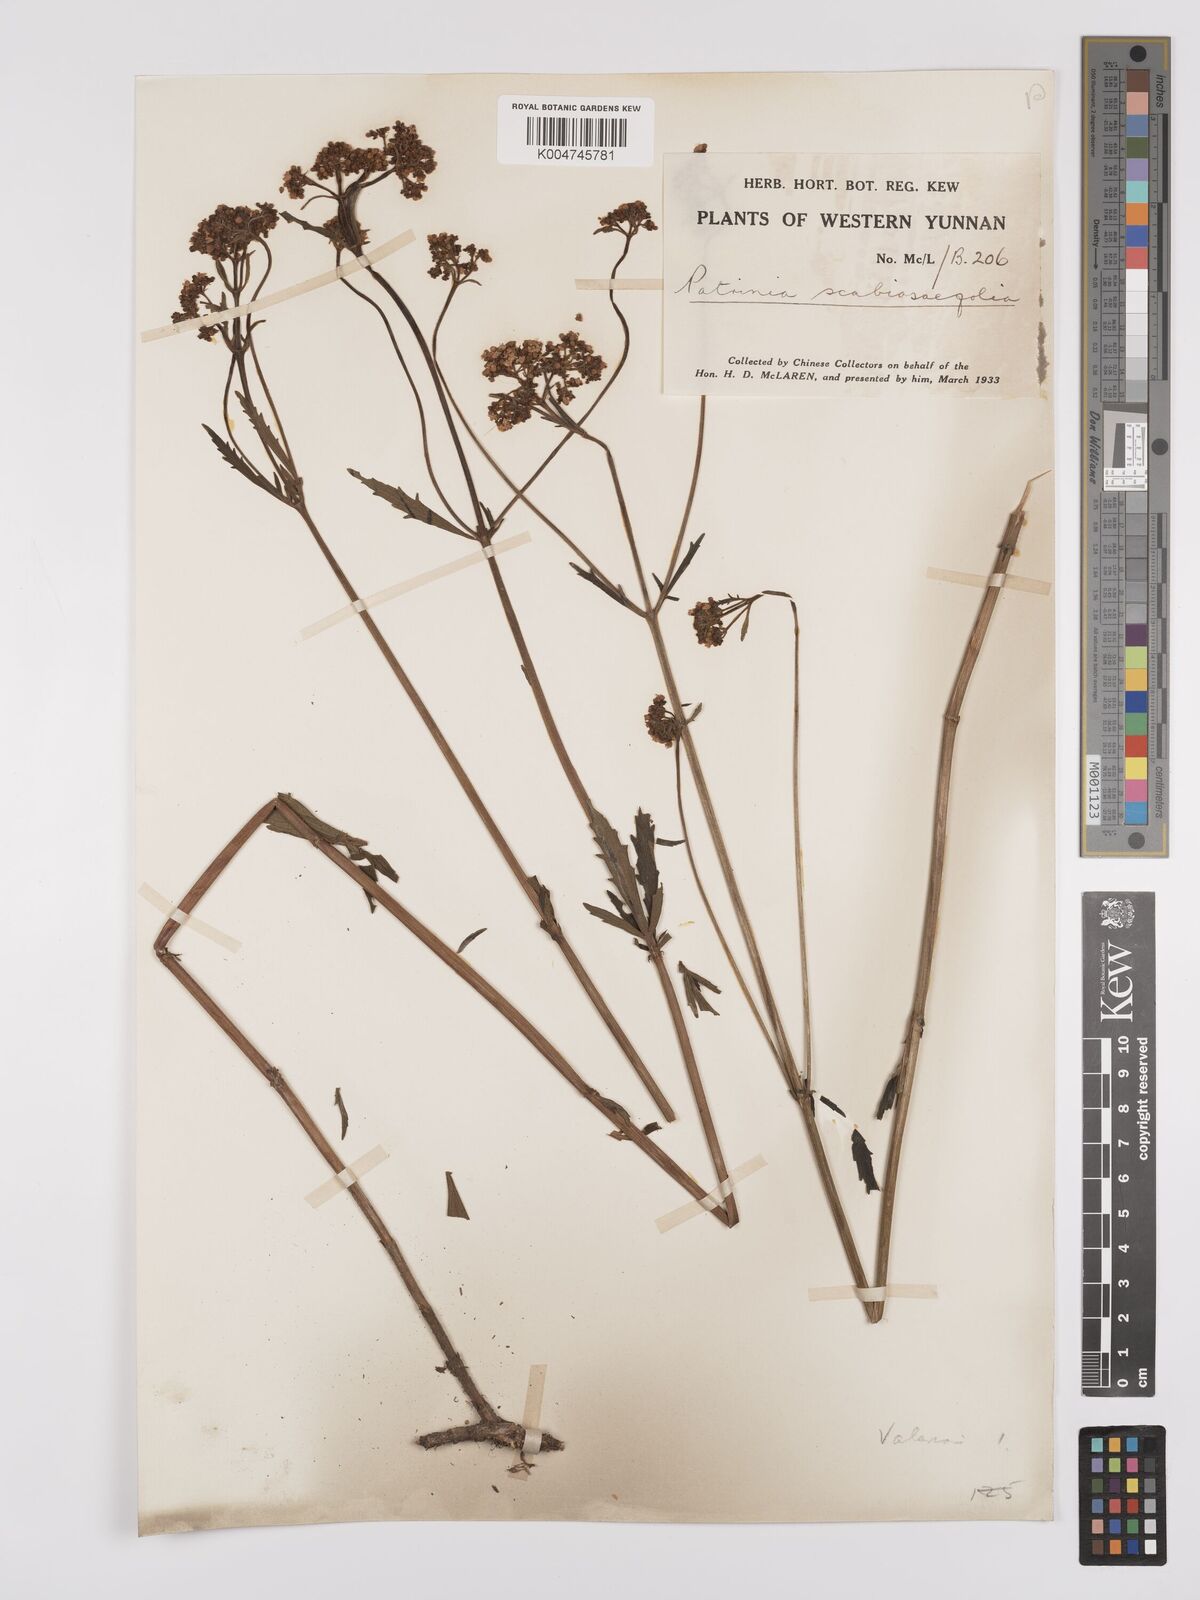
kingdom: Plantae
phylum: Tracheophyta
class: Magnoliopsida
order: Dipsacales
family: Caprifoliaceae
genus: Patrinia
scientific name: Patrinia
